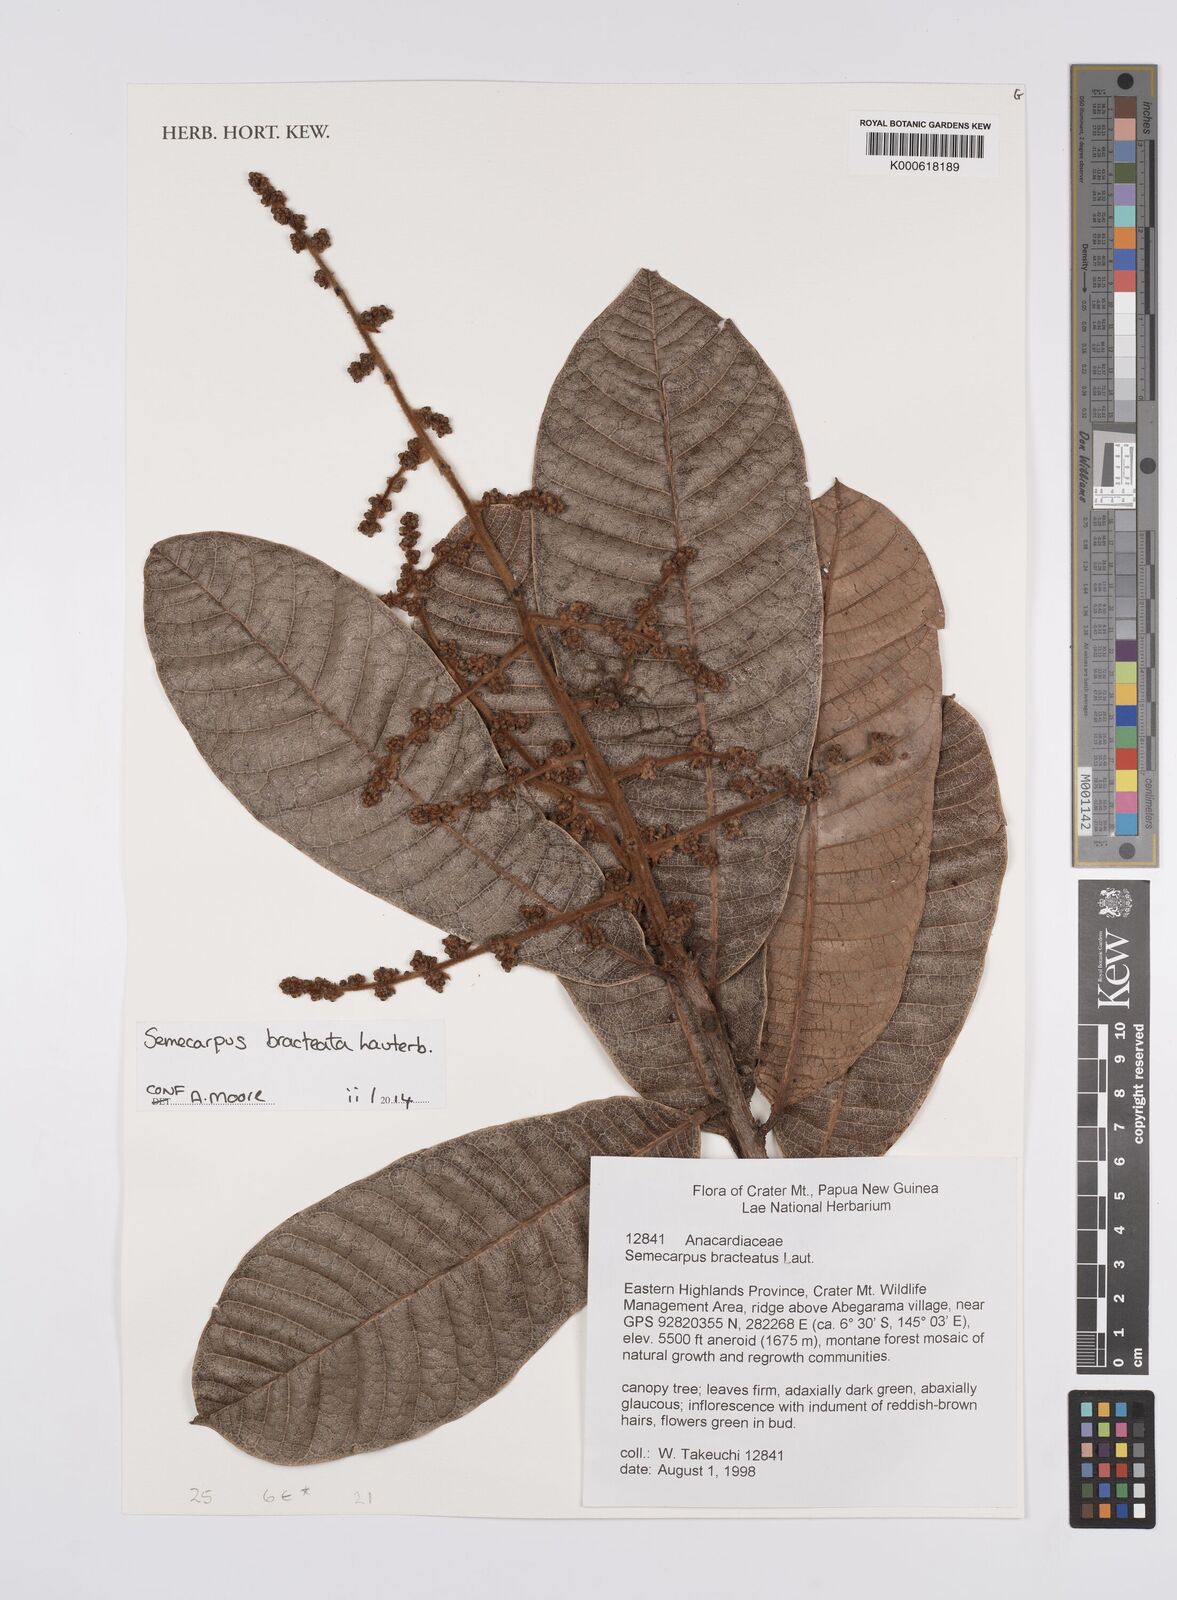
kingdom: Plantae
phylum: Tracheophyta
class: Magnoliopsida
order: Sapindales
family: Anacardiaceae
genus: Semecarpus
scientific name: Semecarpus bracteatus
